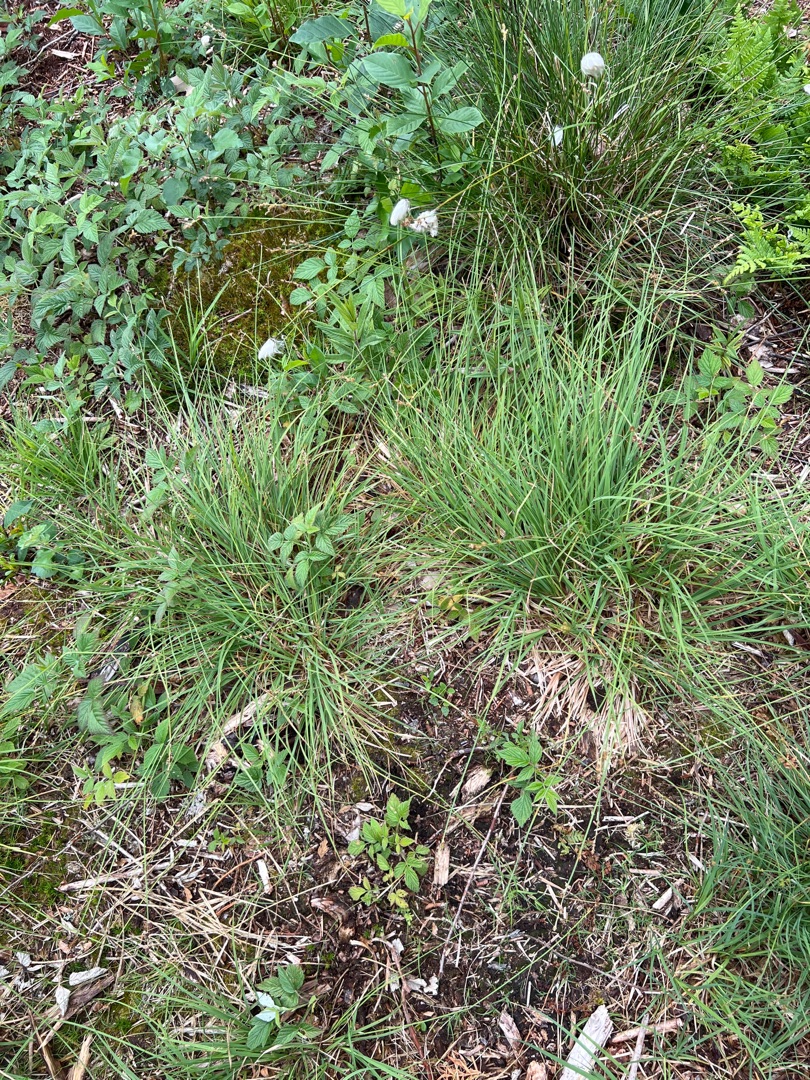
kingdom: Plantae
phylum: Tracheophyta
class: Liliopsida
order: Poales
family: Cyperaceae
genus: Carex
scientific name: Carex canescens
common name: Grå star
